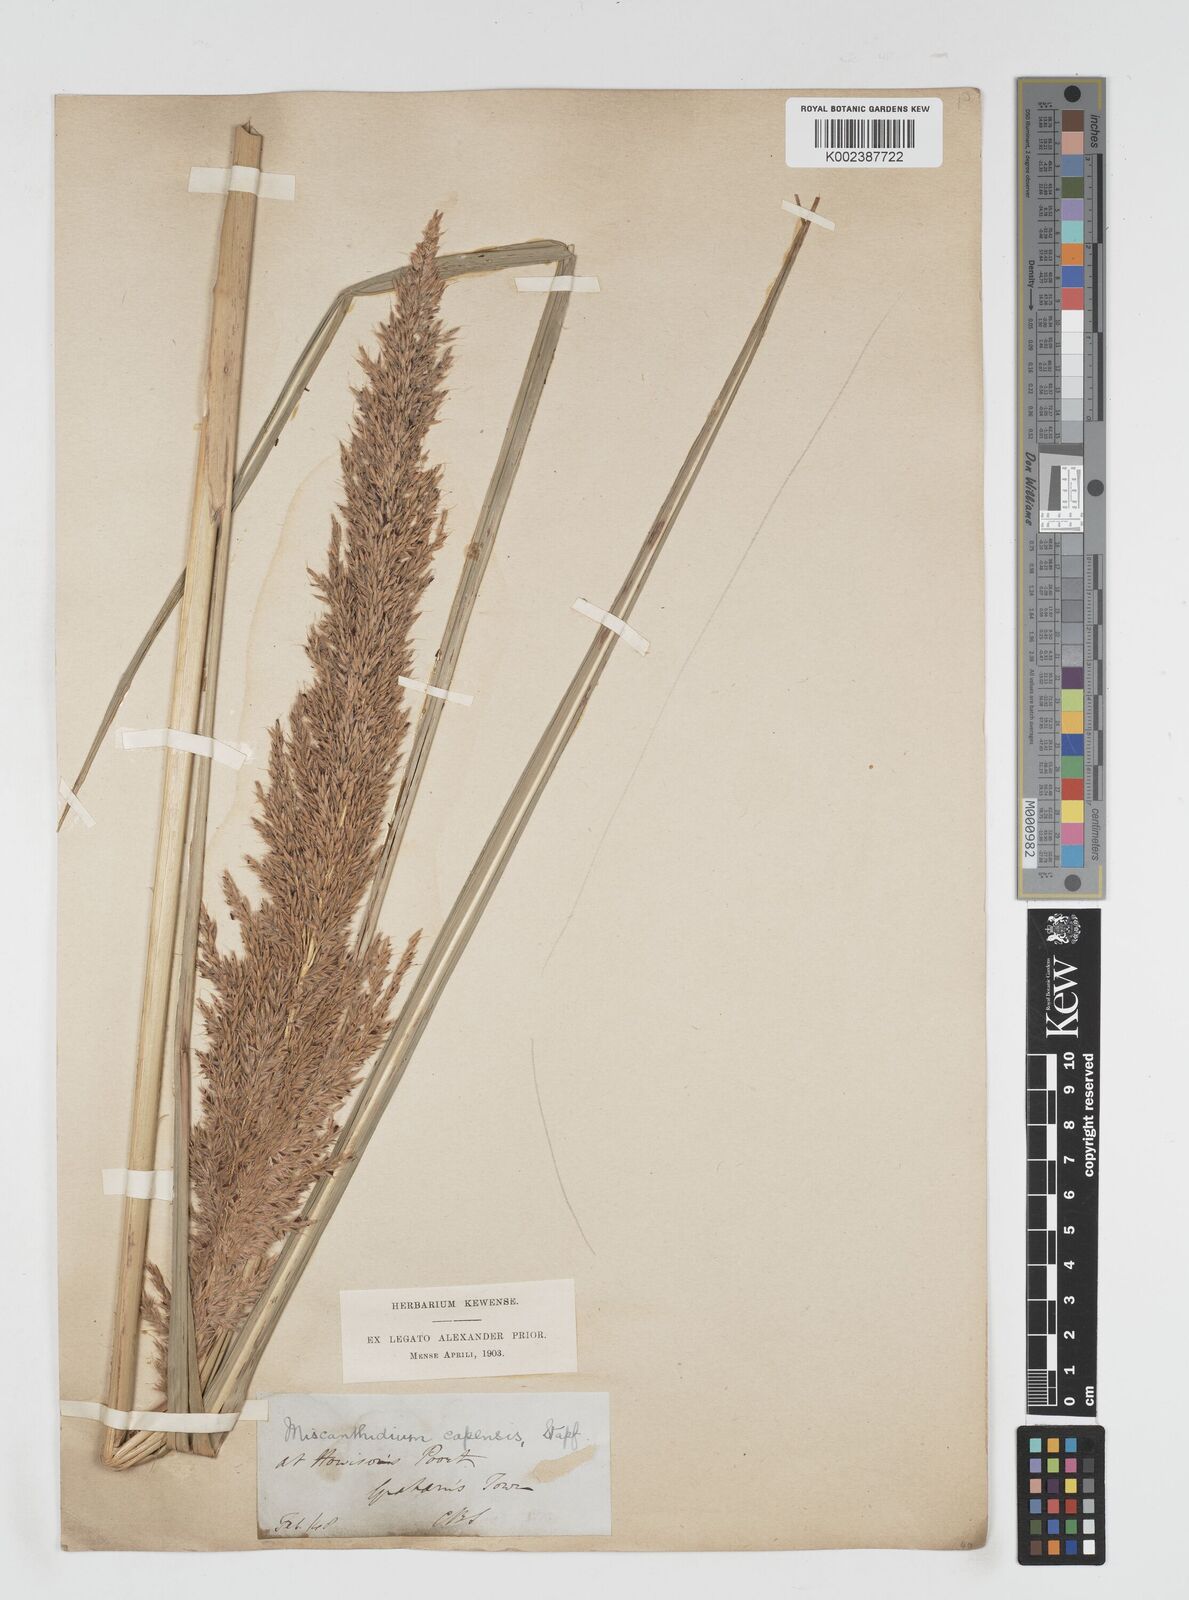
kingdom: Plantae
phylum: Tracheophyta
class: Liliopsida
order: Poales
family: Poaceae
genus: Miscanthus
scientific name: Miscanthus ecklonii
